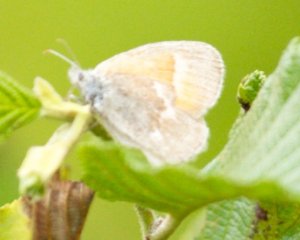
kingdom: Animalia
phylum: Arthropoda
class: Insecta
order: Lepidoptera
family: Nymphalidae
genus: Coenonympha
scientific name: Coenonympha tullia
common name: Large Heath
